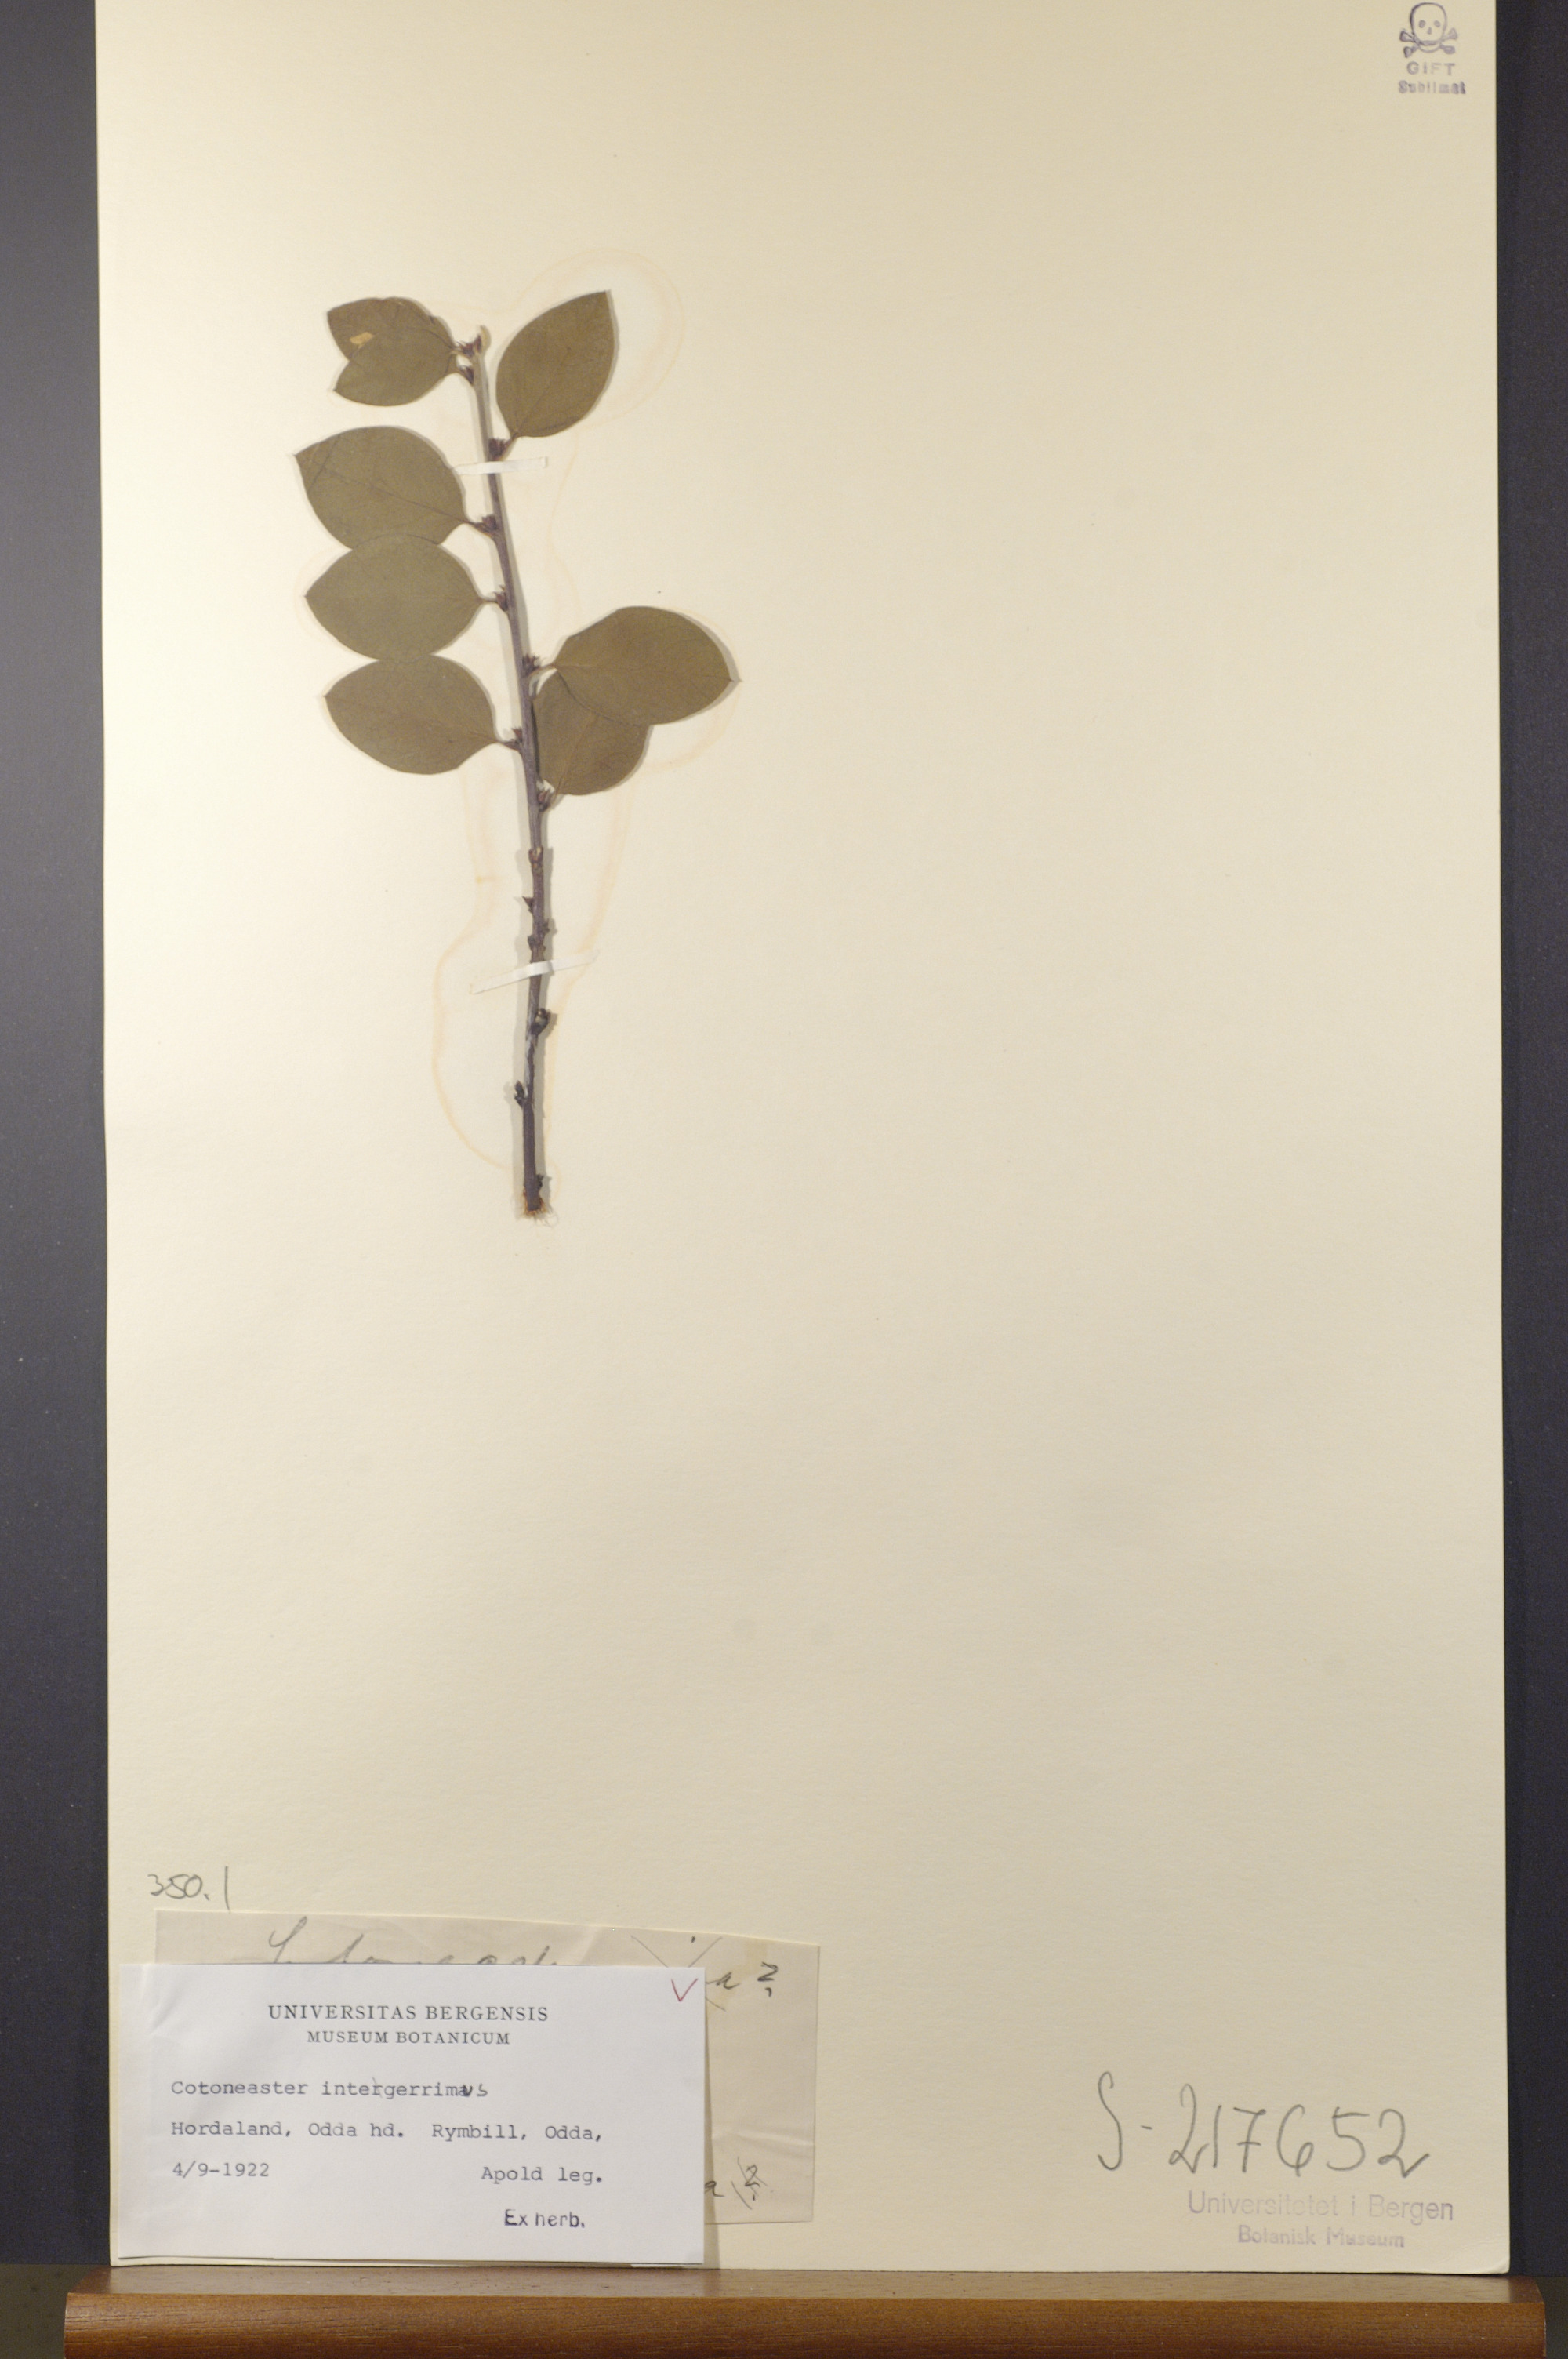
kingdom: Plantae
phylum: Tracheophyta
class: Magnoliopsida
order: Rosales
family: Rosaceae
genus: Cotoneaster
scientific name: Cotoneaster integerrimus
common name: Wild cotoneaster
